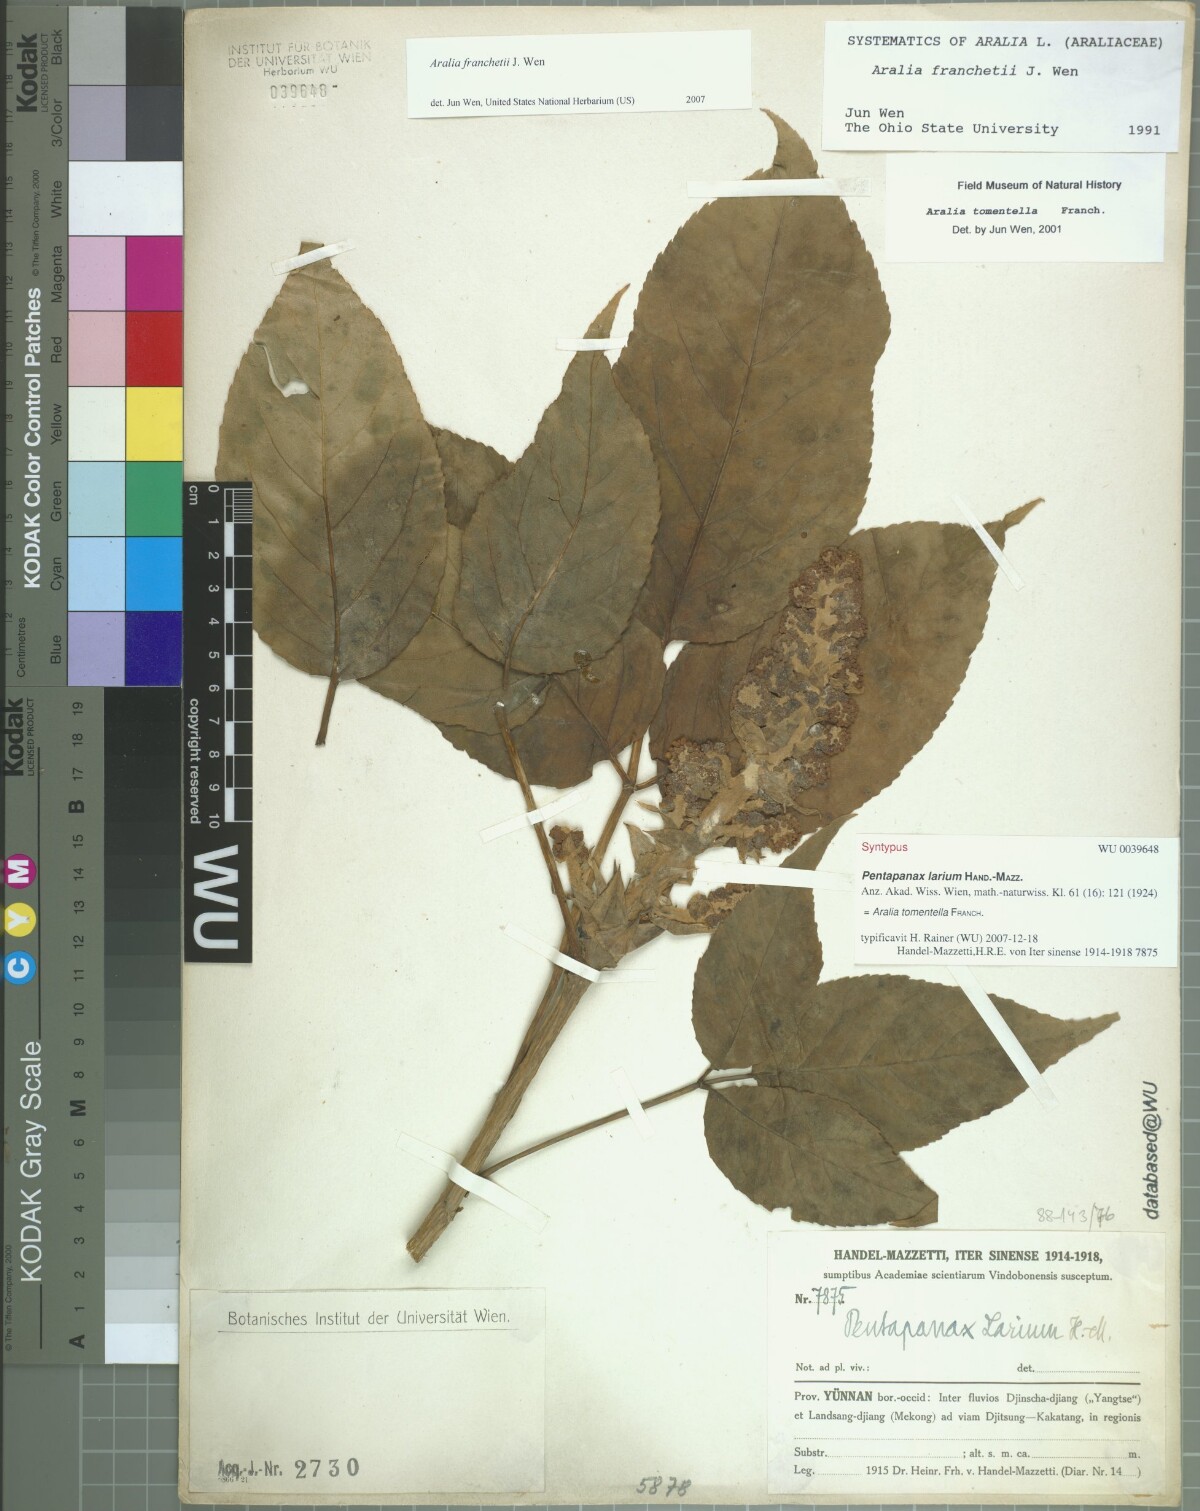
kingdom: Plantae
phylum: Tracheophyta
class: Magnoliopsida
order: Apiales
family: Araliaceae
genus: Aralia
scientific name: Aralia tomentella
